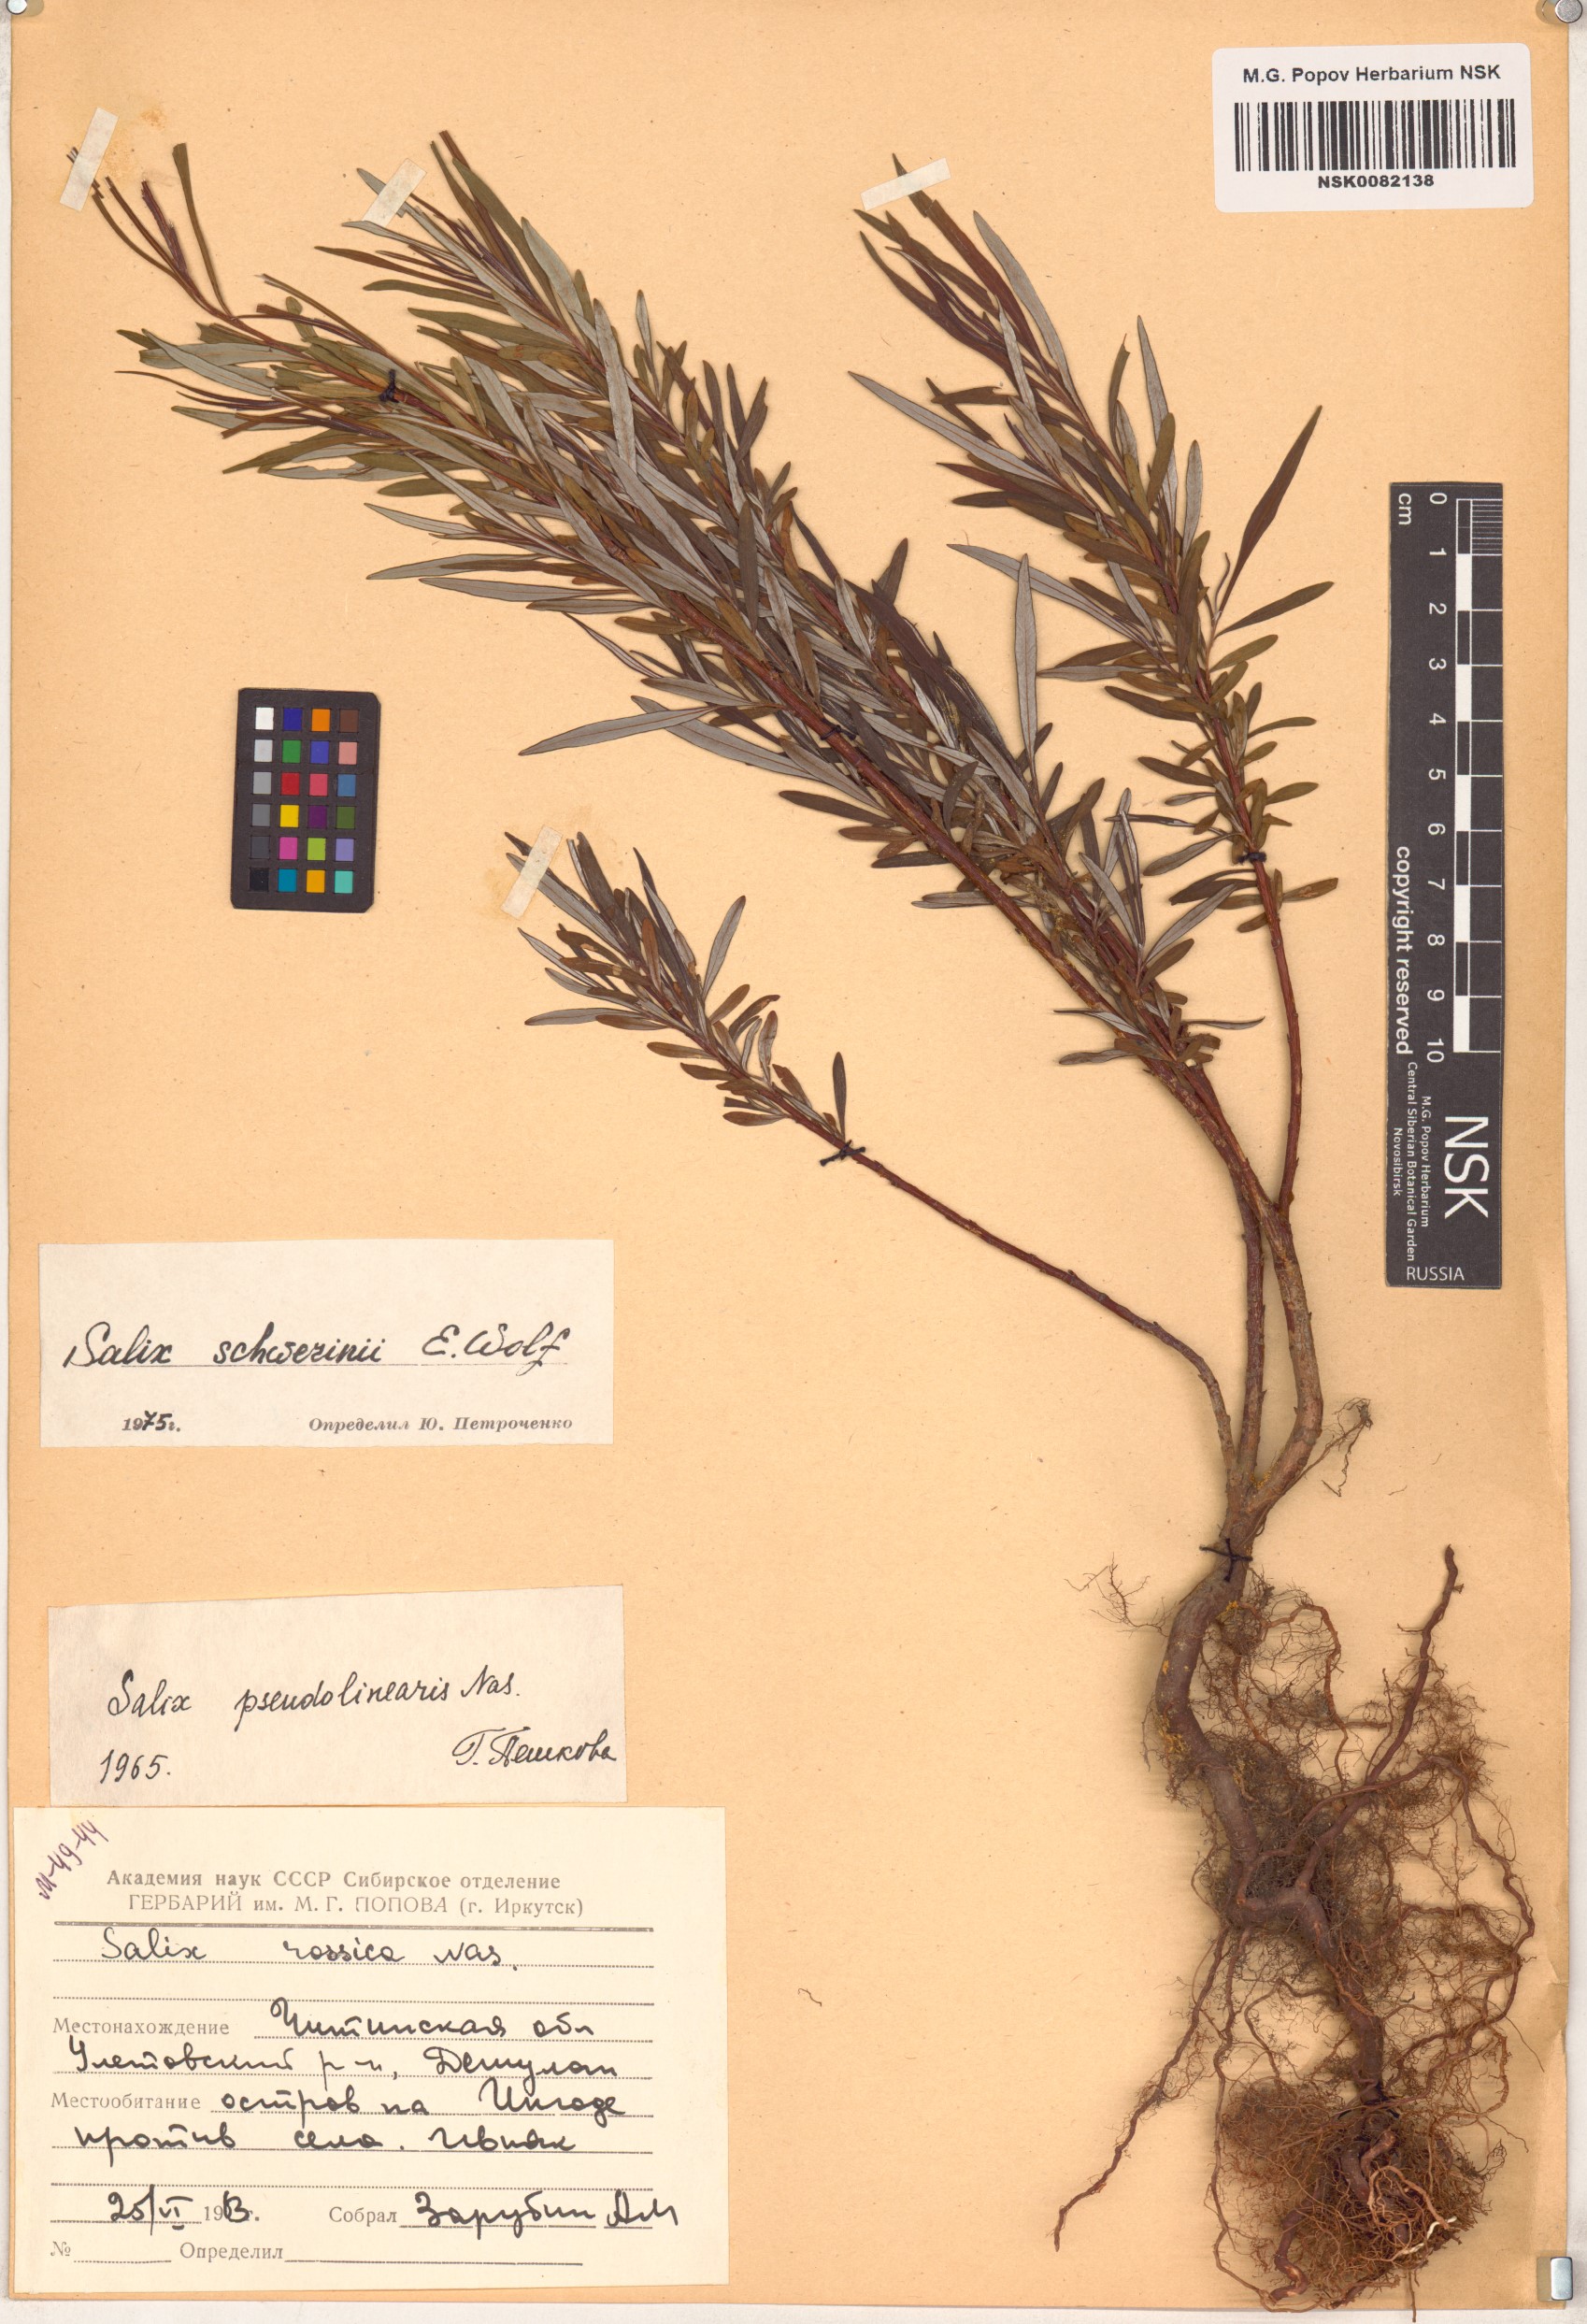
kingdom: Plantae
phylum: Tracheophyta
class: Magnoliopsida
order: Malpighiales
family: Salicaceae
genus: Salix
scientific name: Salix schwerinii
